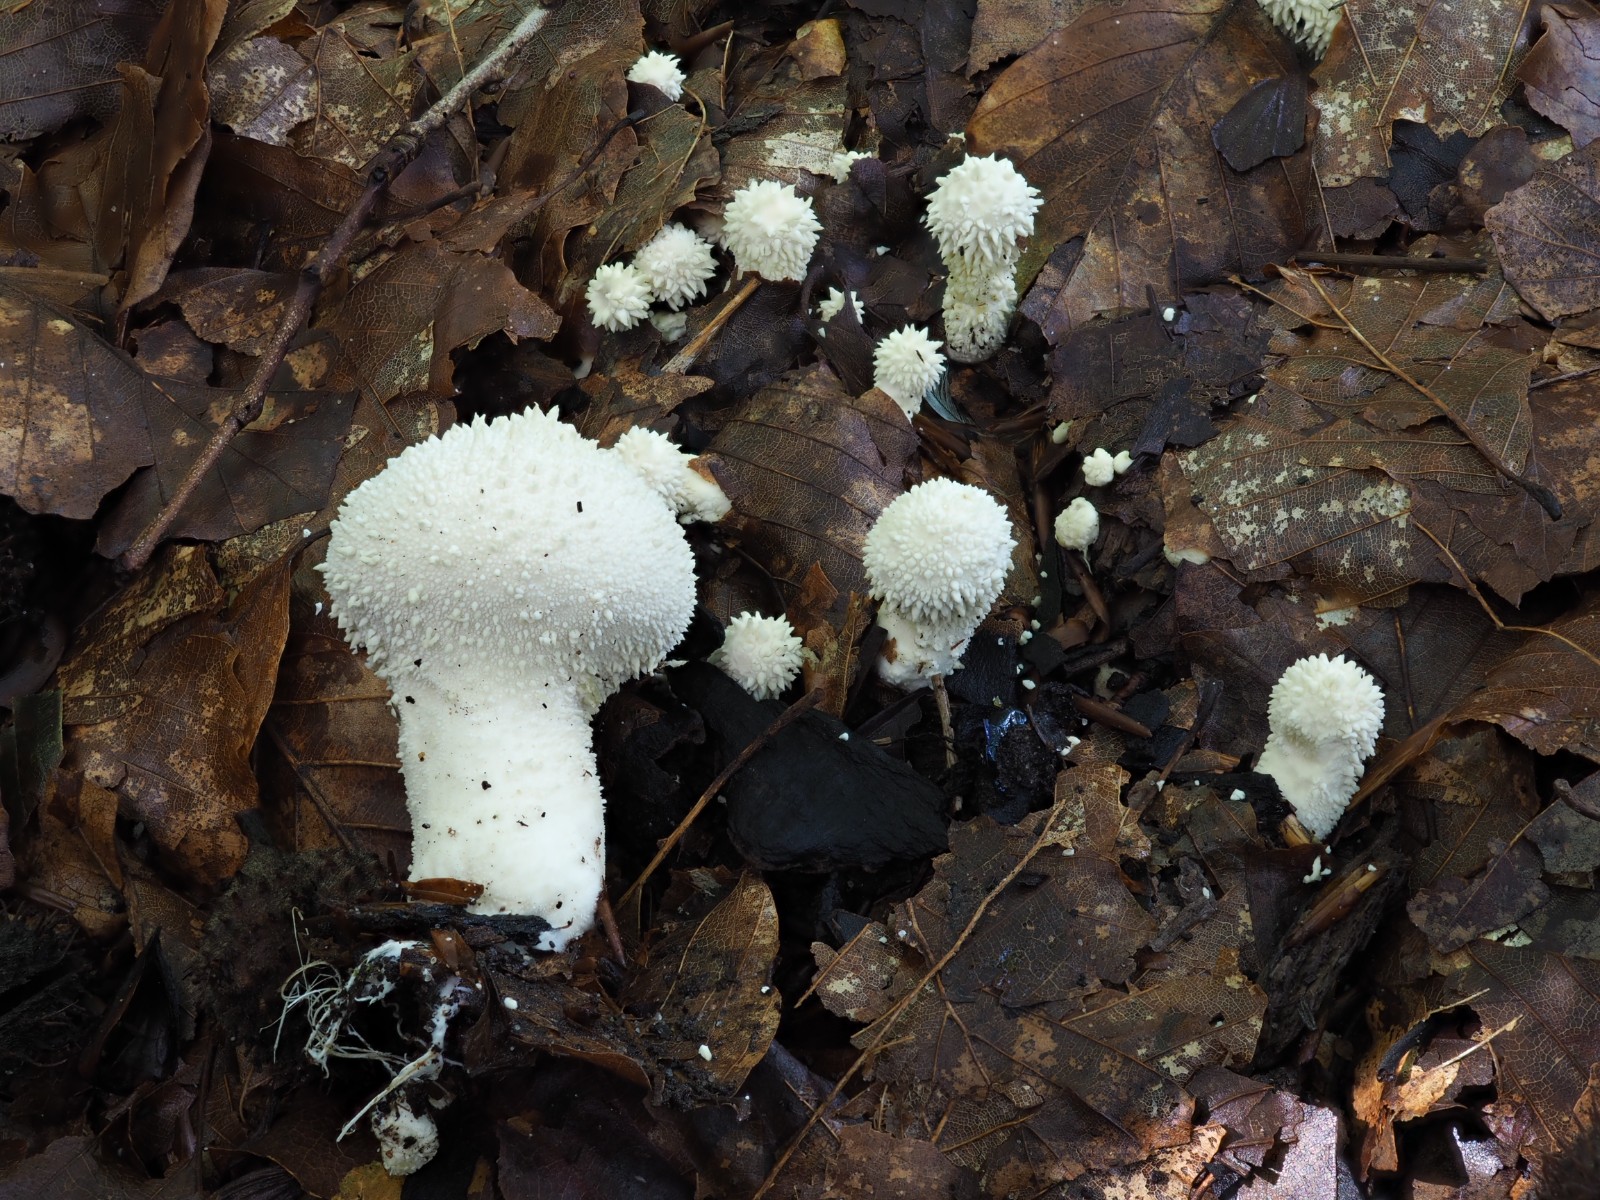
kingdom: Fungi
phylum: Basidiomycota
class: Agaricomycetes
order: Agaricales
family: Lycoperdaceae
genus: Lycoperdon
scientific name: Lycoperdon perlatum
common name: krystal-støvbold
